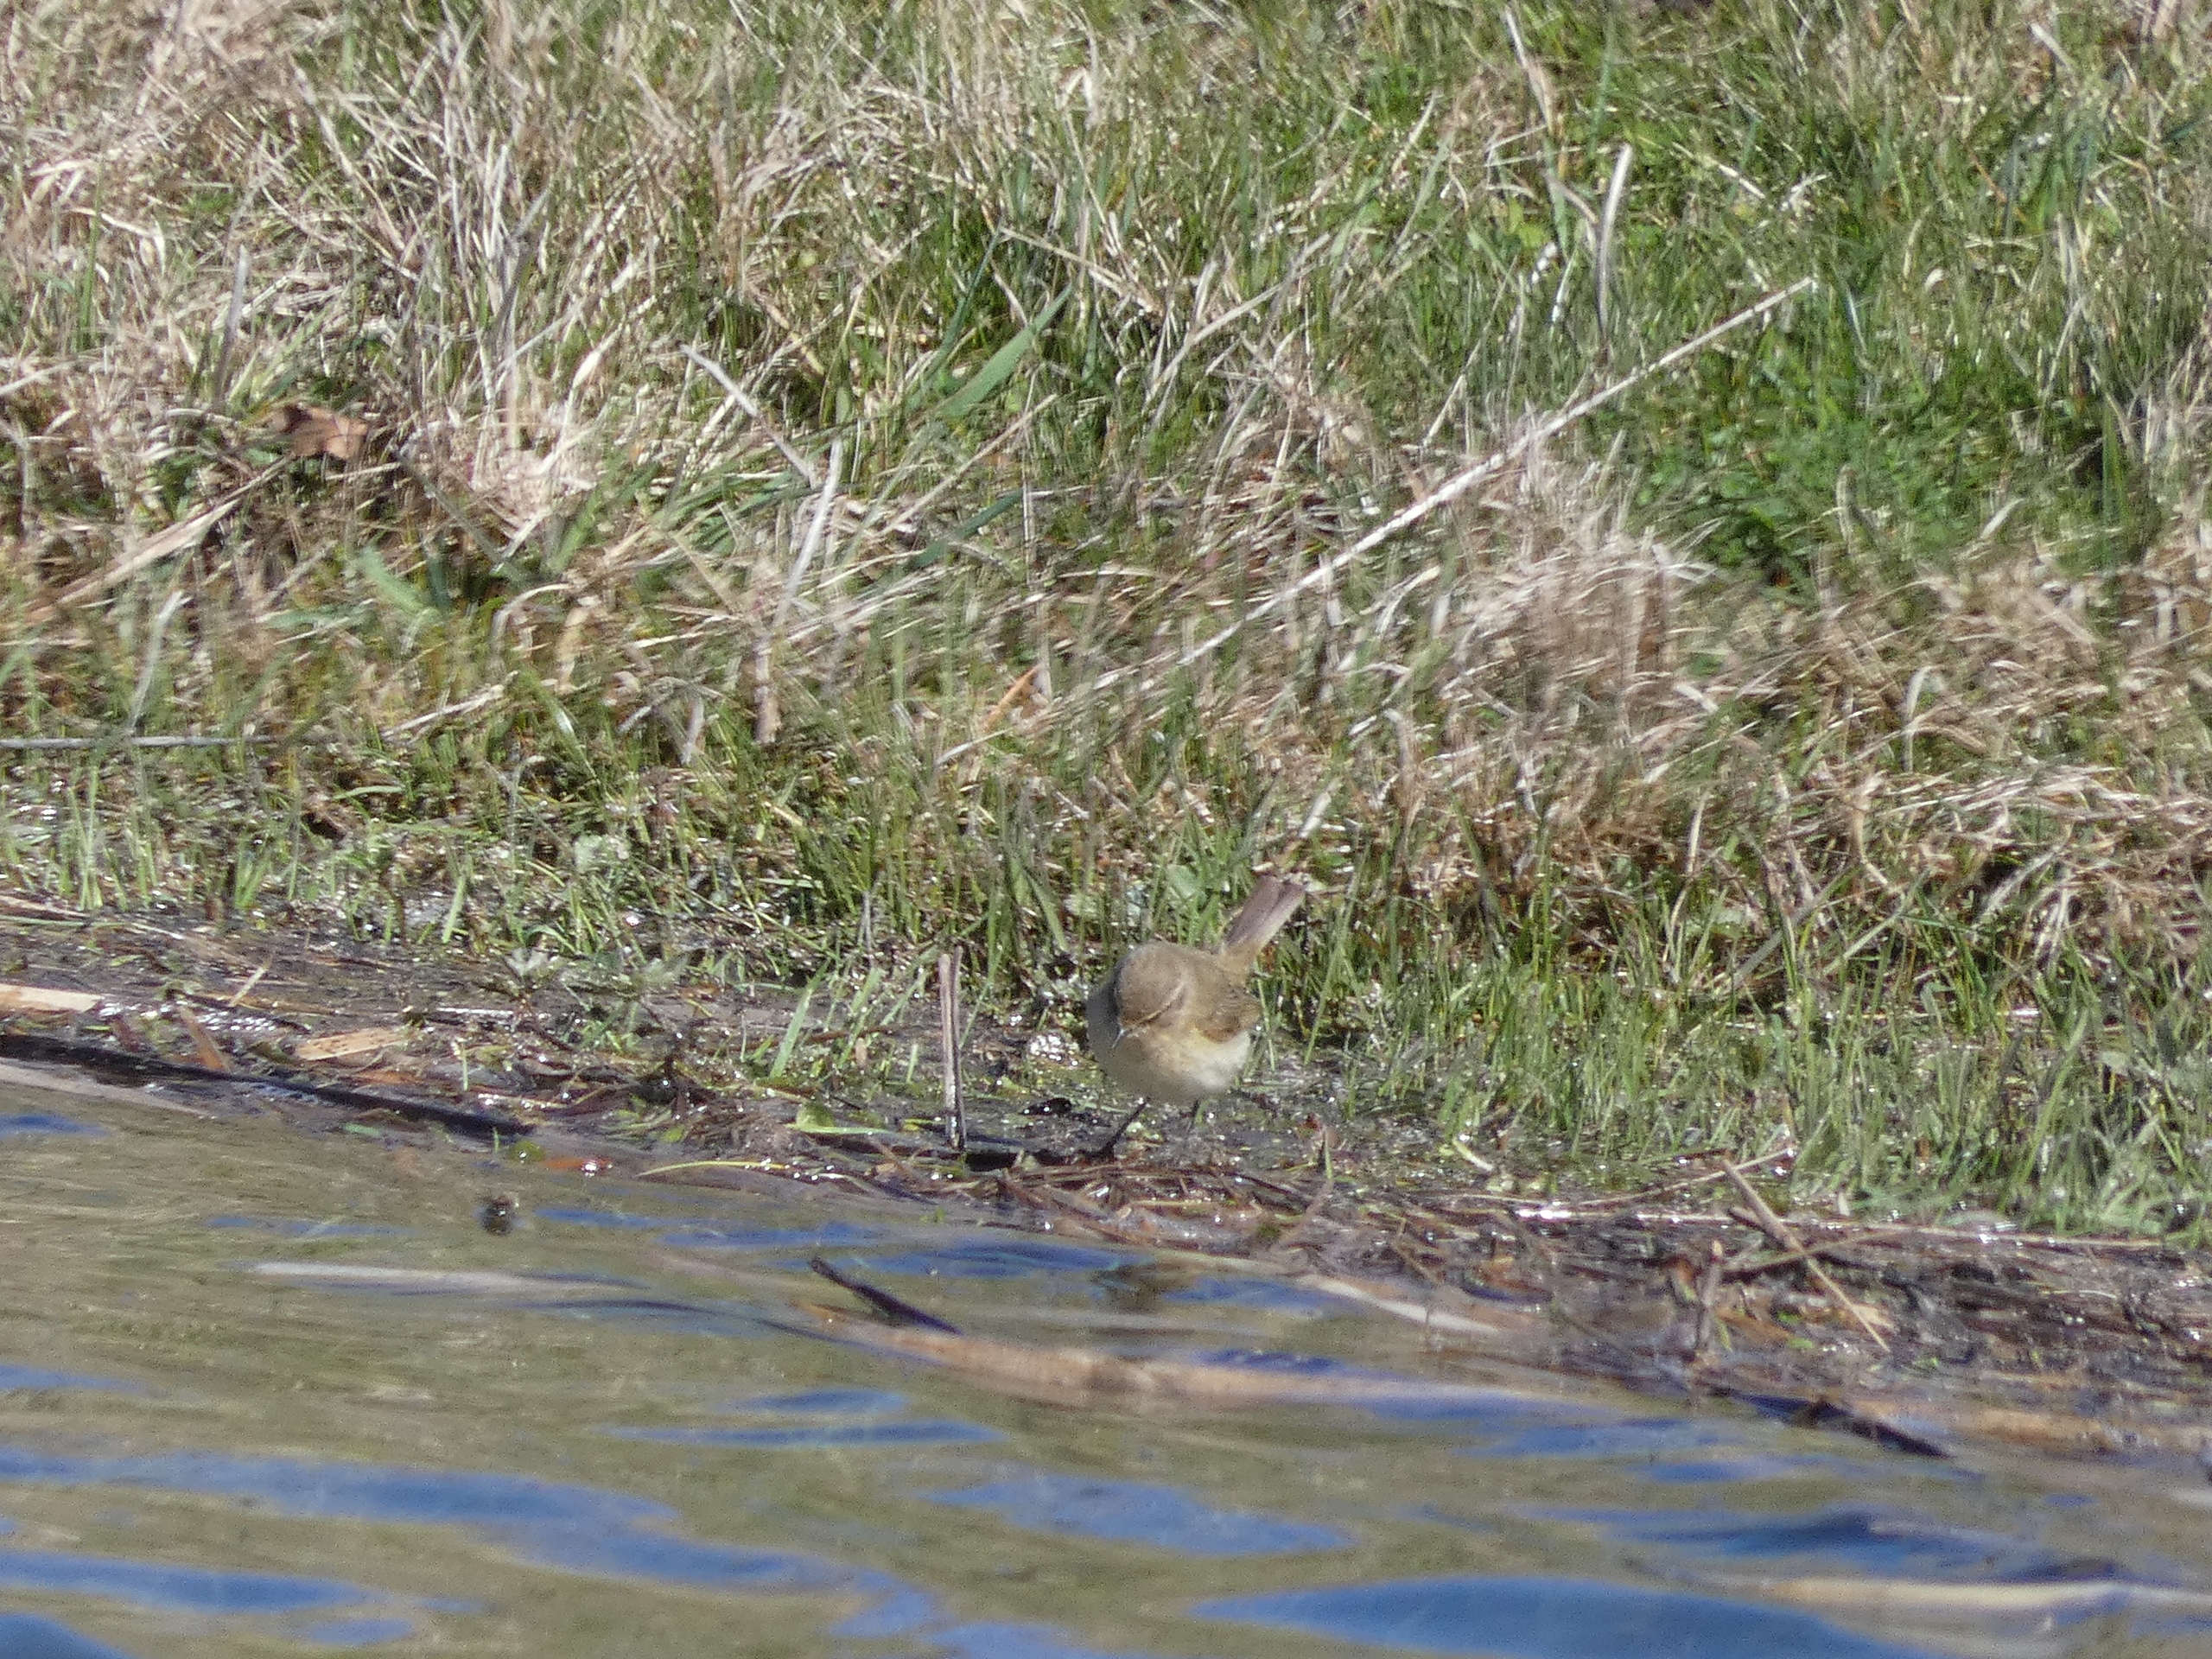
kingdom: Animalia
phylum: Chordata
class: Aves
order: Passeriformes
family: Phylloscopidae
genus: Phylloscopus
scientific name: Phylloscopus collybita
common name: Gransanger
